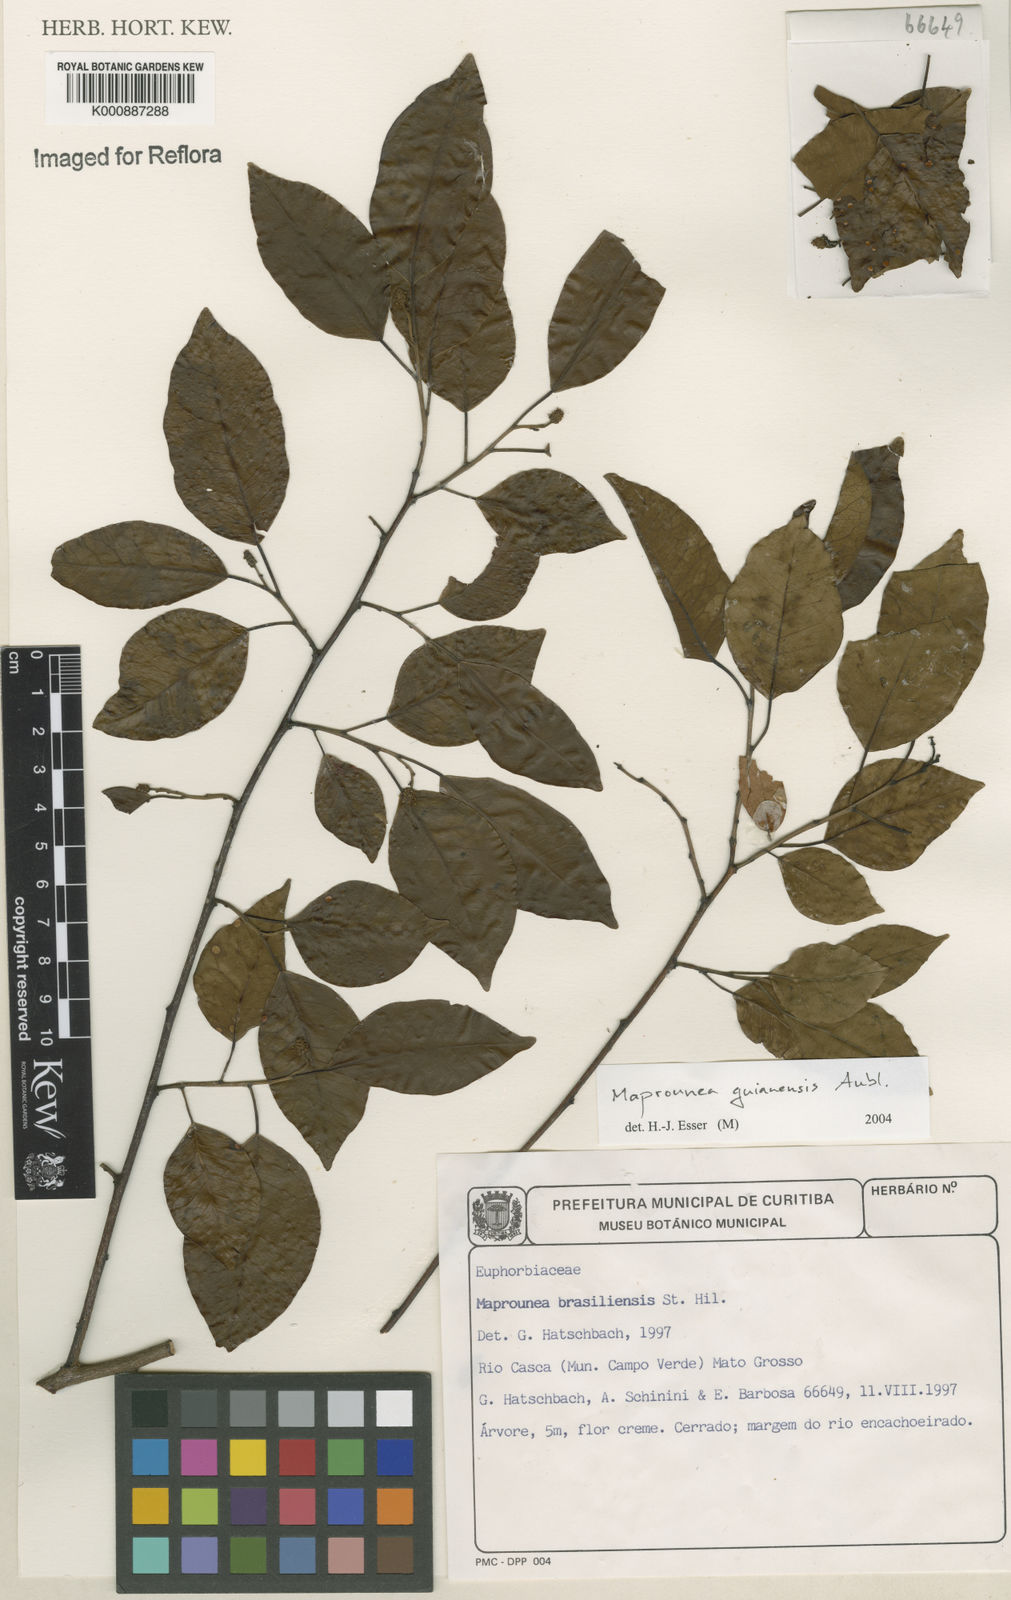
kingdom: Plantae
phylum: Tracheophyta
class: Magnoliopsida
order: Malpighiales
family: Euphorbiaceae
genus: Maprounea
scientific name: Maprounea guianensis
